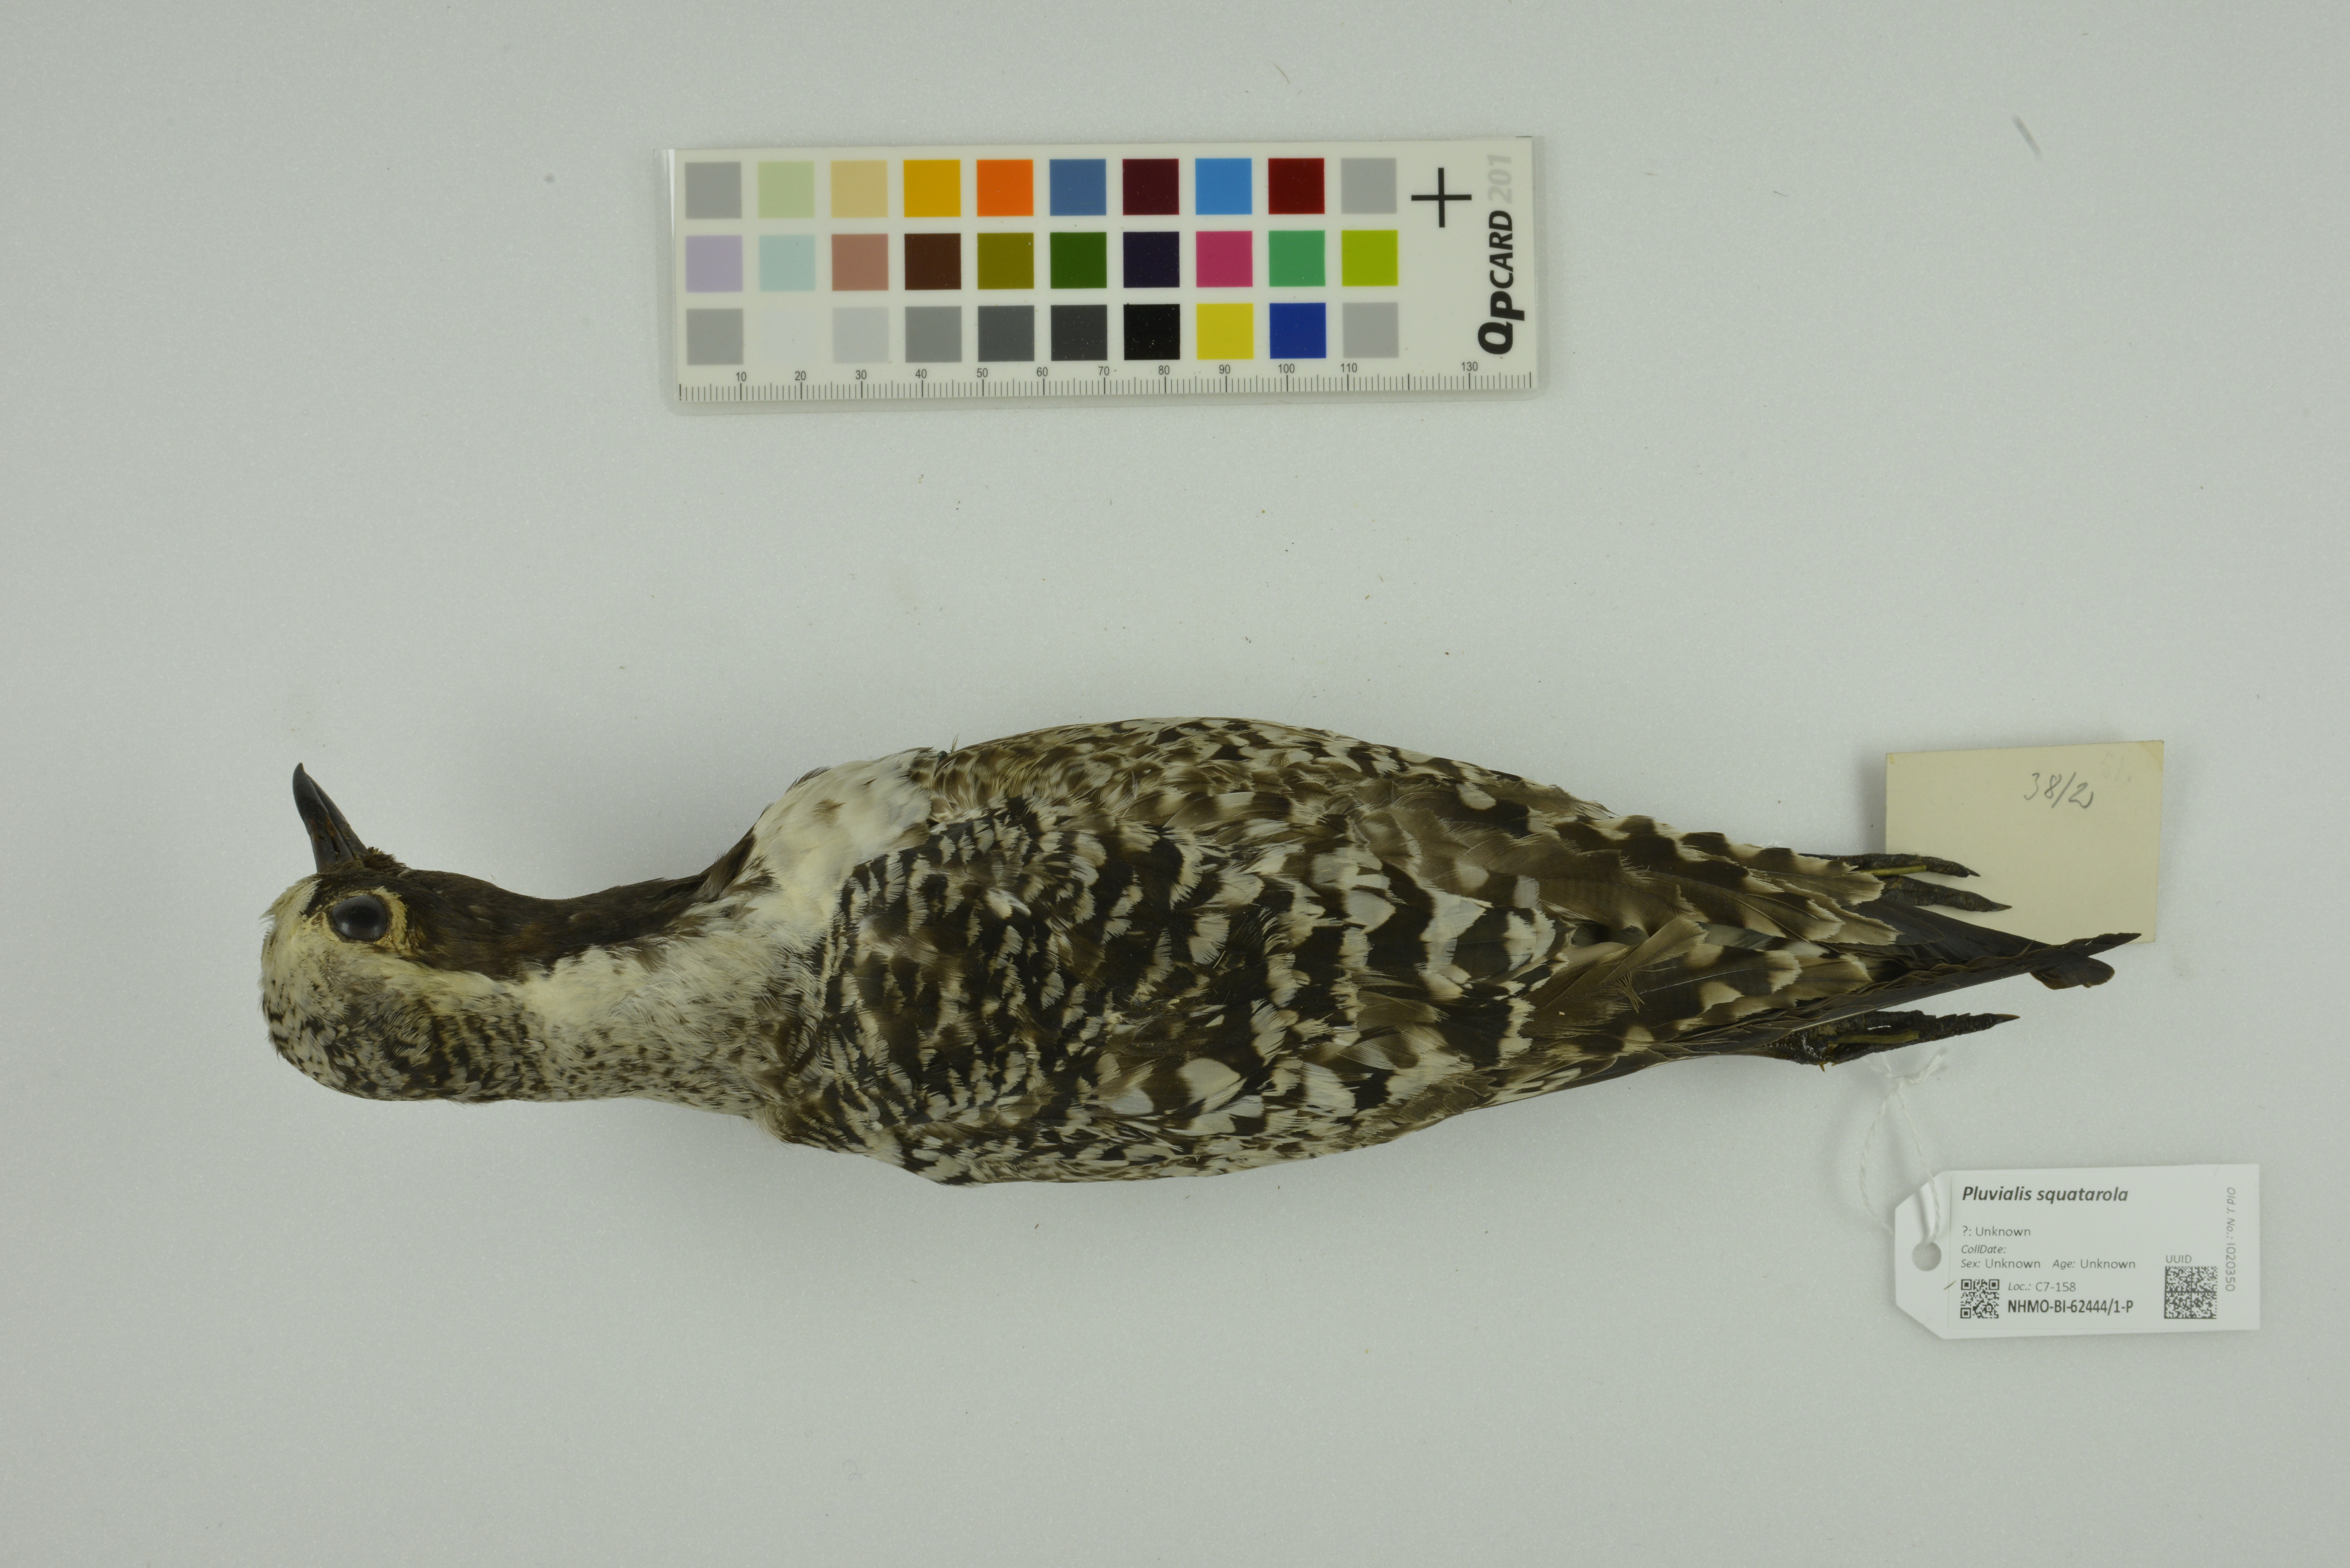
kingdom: Animalia
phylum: Chordata
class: Aves
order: Charadriiformes
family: Charadriidae
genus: Pluvialis
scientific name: Pluvialis squatarola
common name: Grey plover
